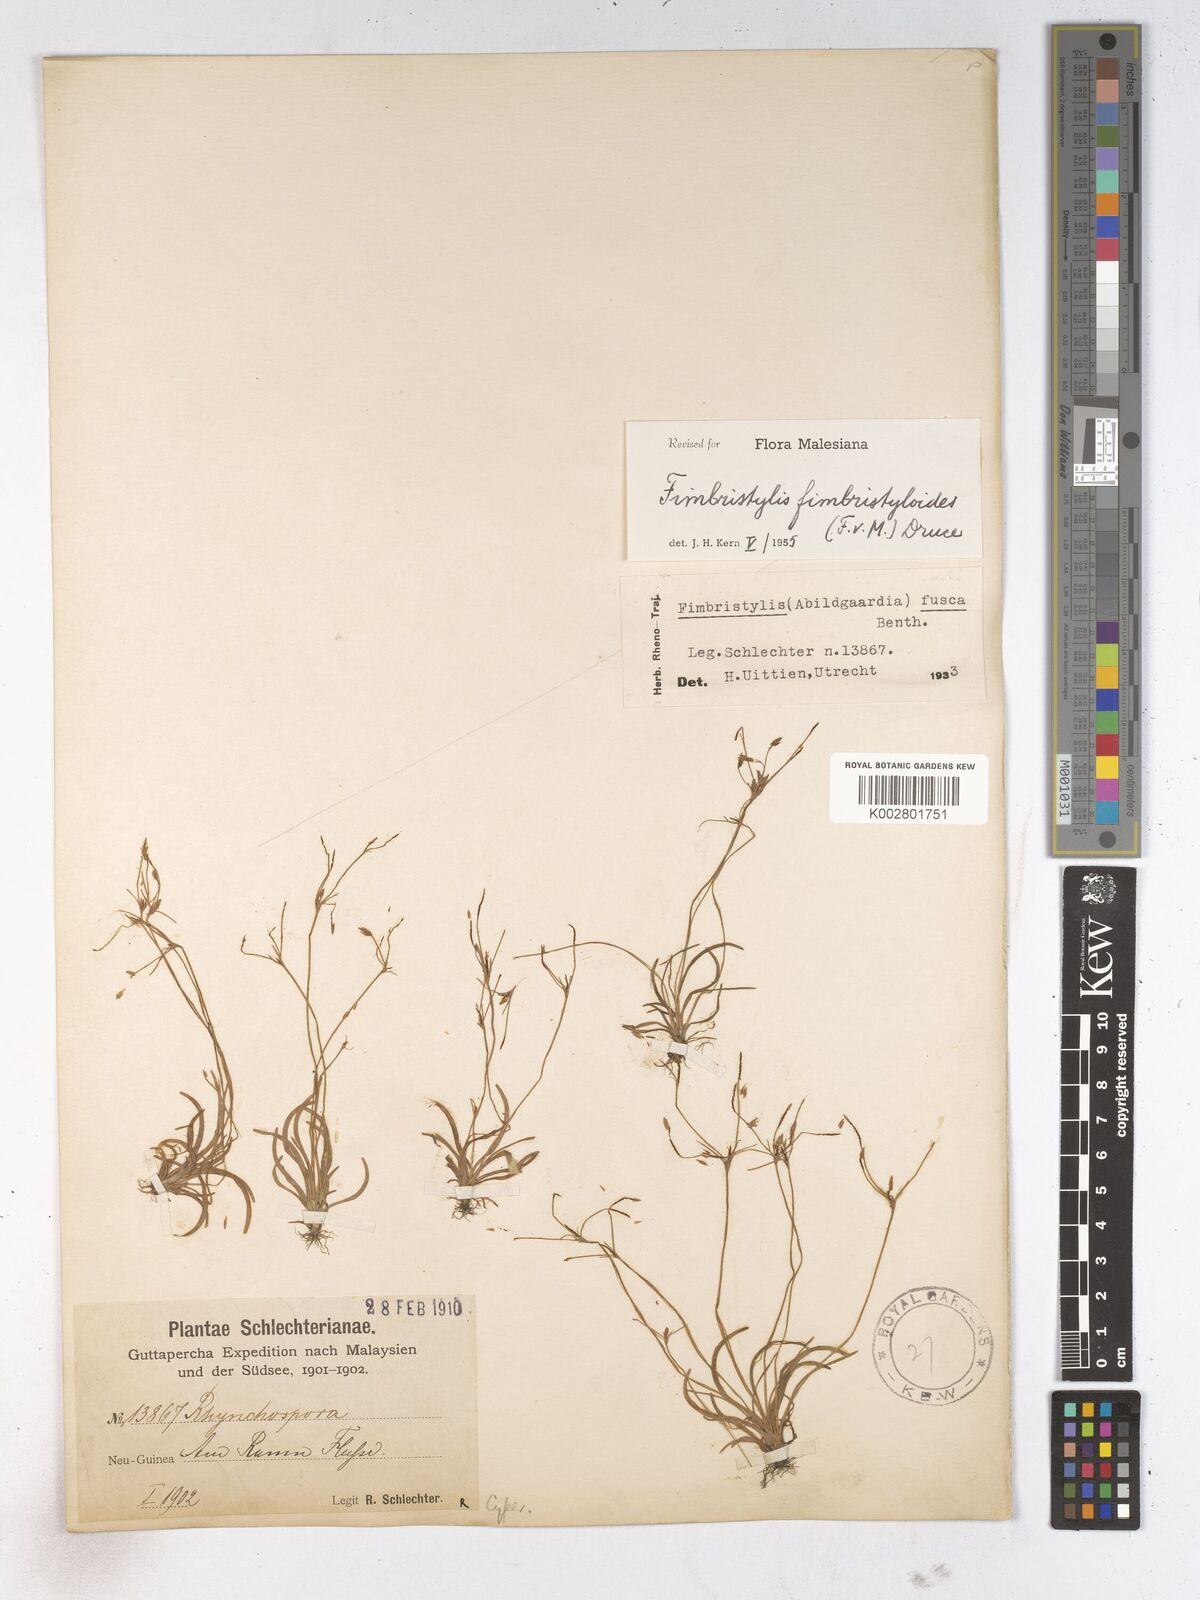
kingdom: Plantae
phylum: Tracheophyta
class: Liliopsida
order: Poales
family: Cyperaceae
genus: Fimbristylis
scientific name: Fimbristylis fimbristyloides
